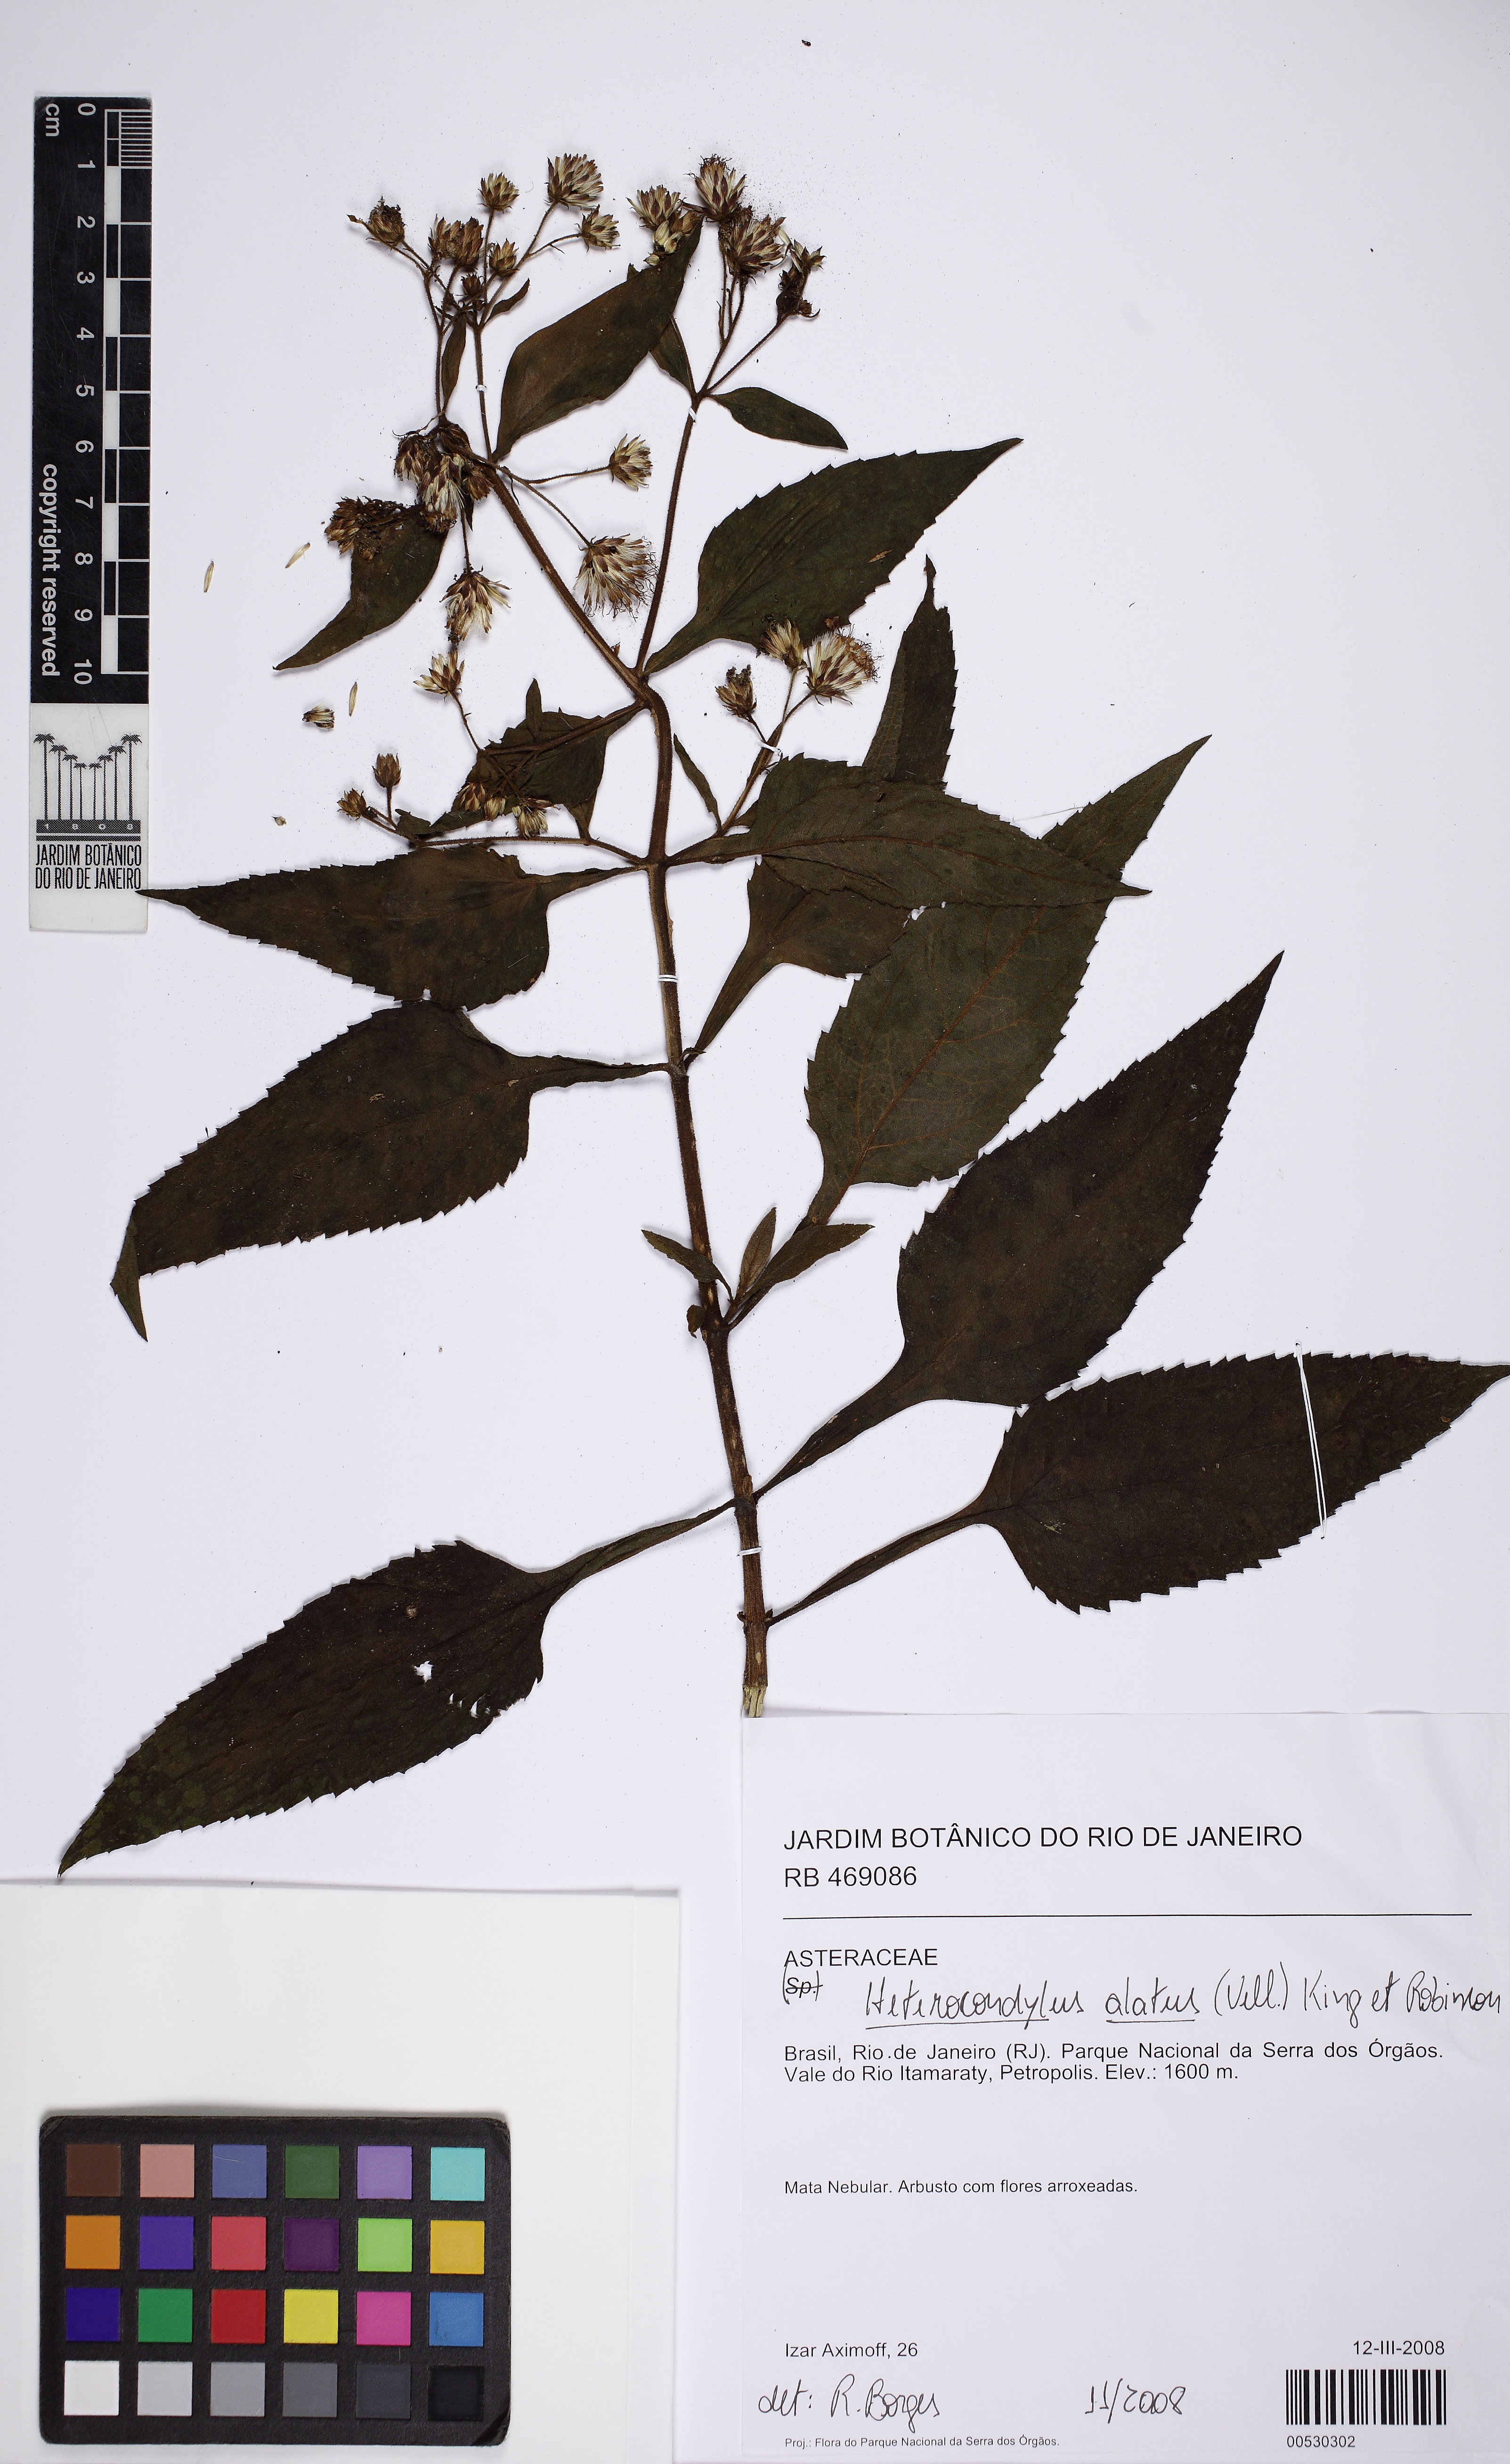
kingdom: Plantae
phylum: Tracheophyta
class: Magnoliopsida
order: Asterales
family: Asteraceae
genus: Heterocondylus
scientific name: Heterocondylus alatus
